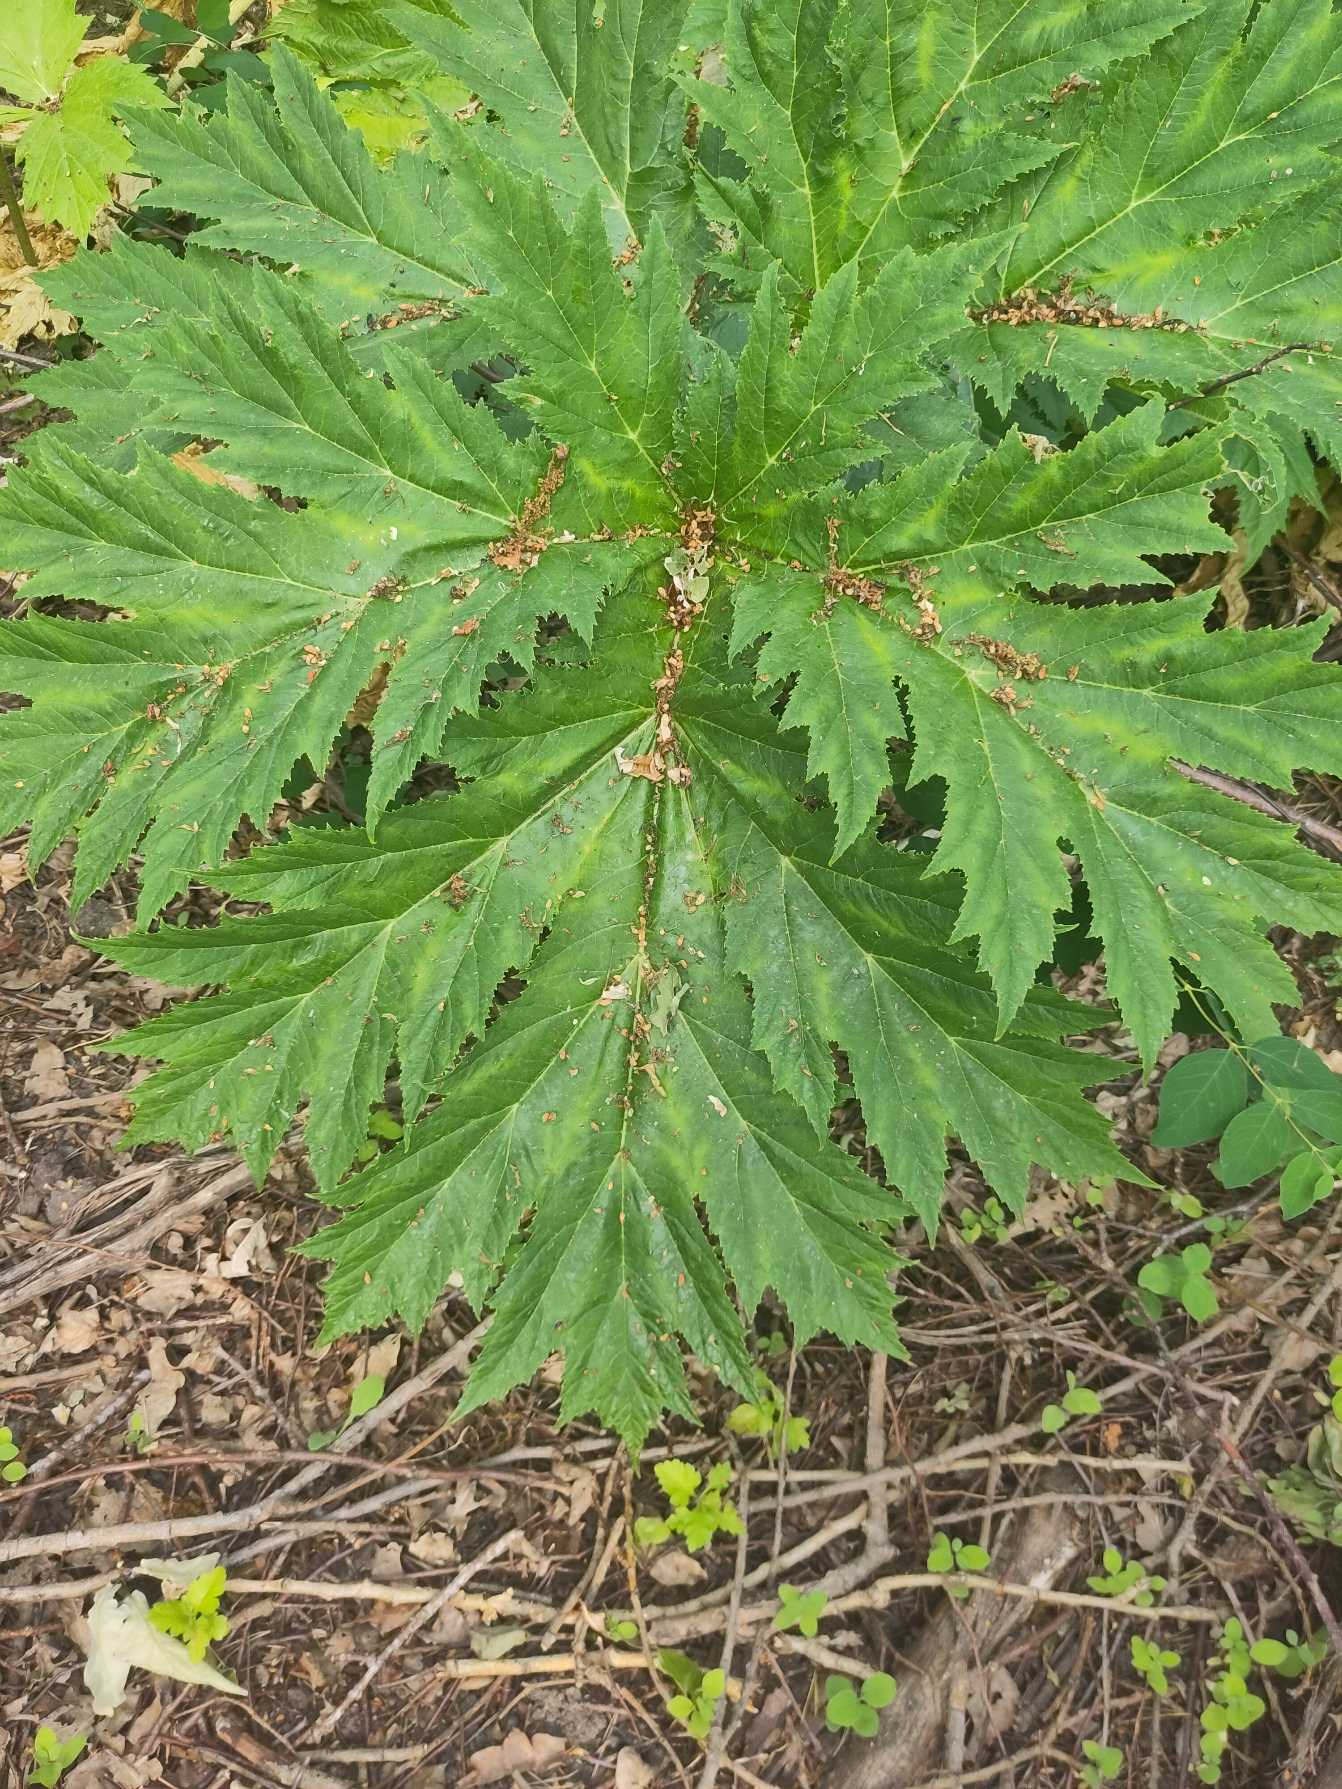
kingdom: Plantae
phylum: Tracheophyta
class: Magnoliopsida
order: Apiales
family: Apiaceae
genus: Heracleum
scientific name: Heracleum mantegazzianum
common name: Kæmpe-bjørneklo
